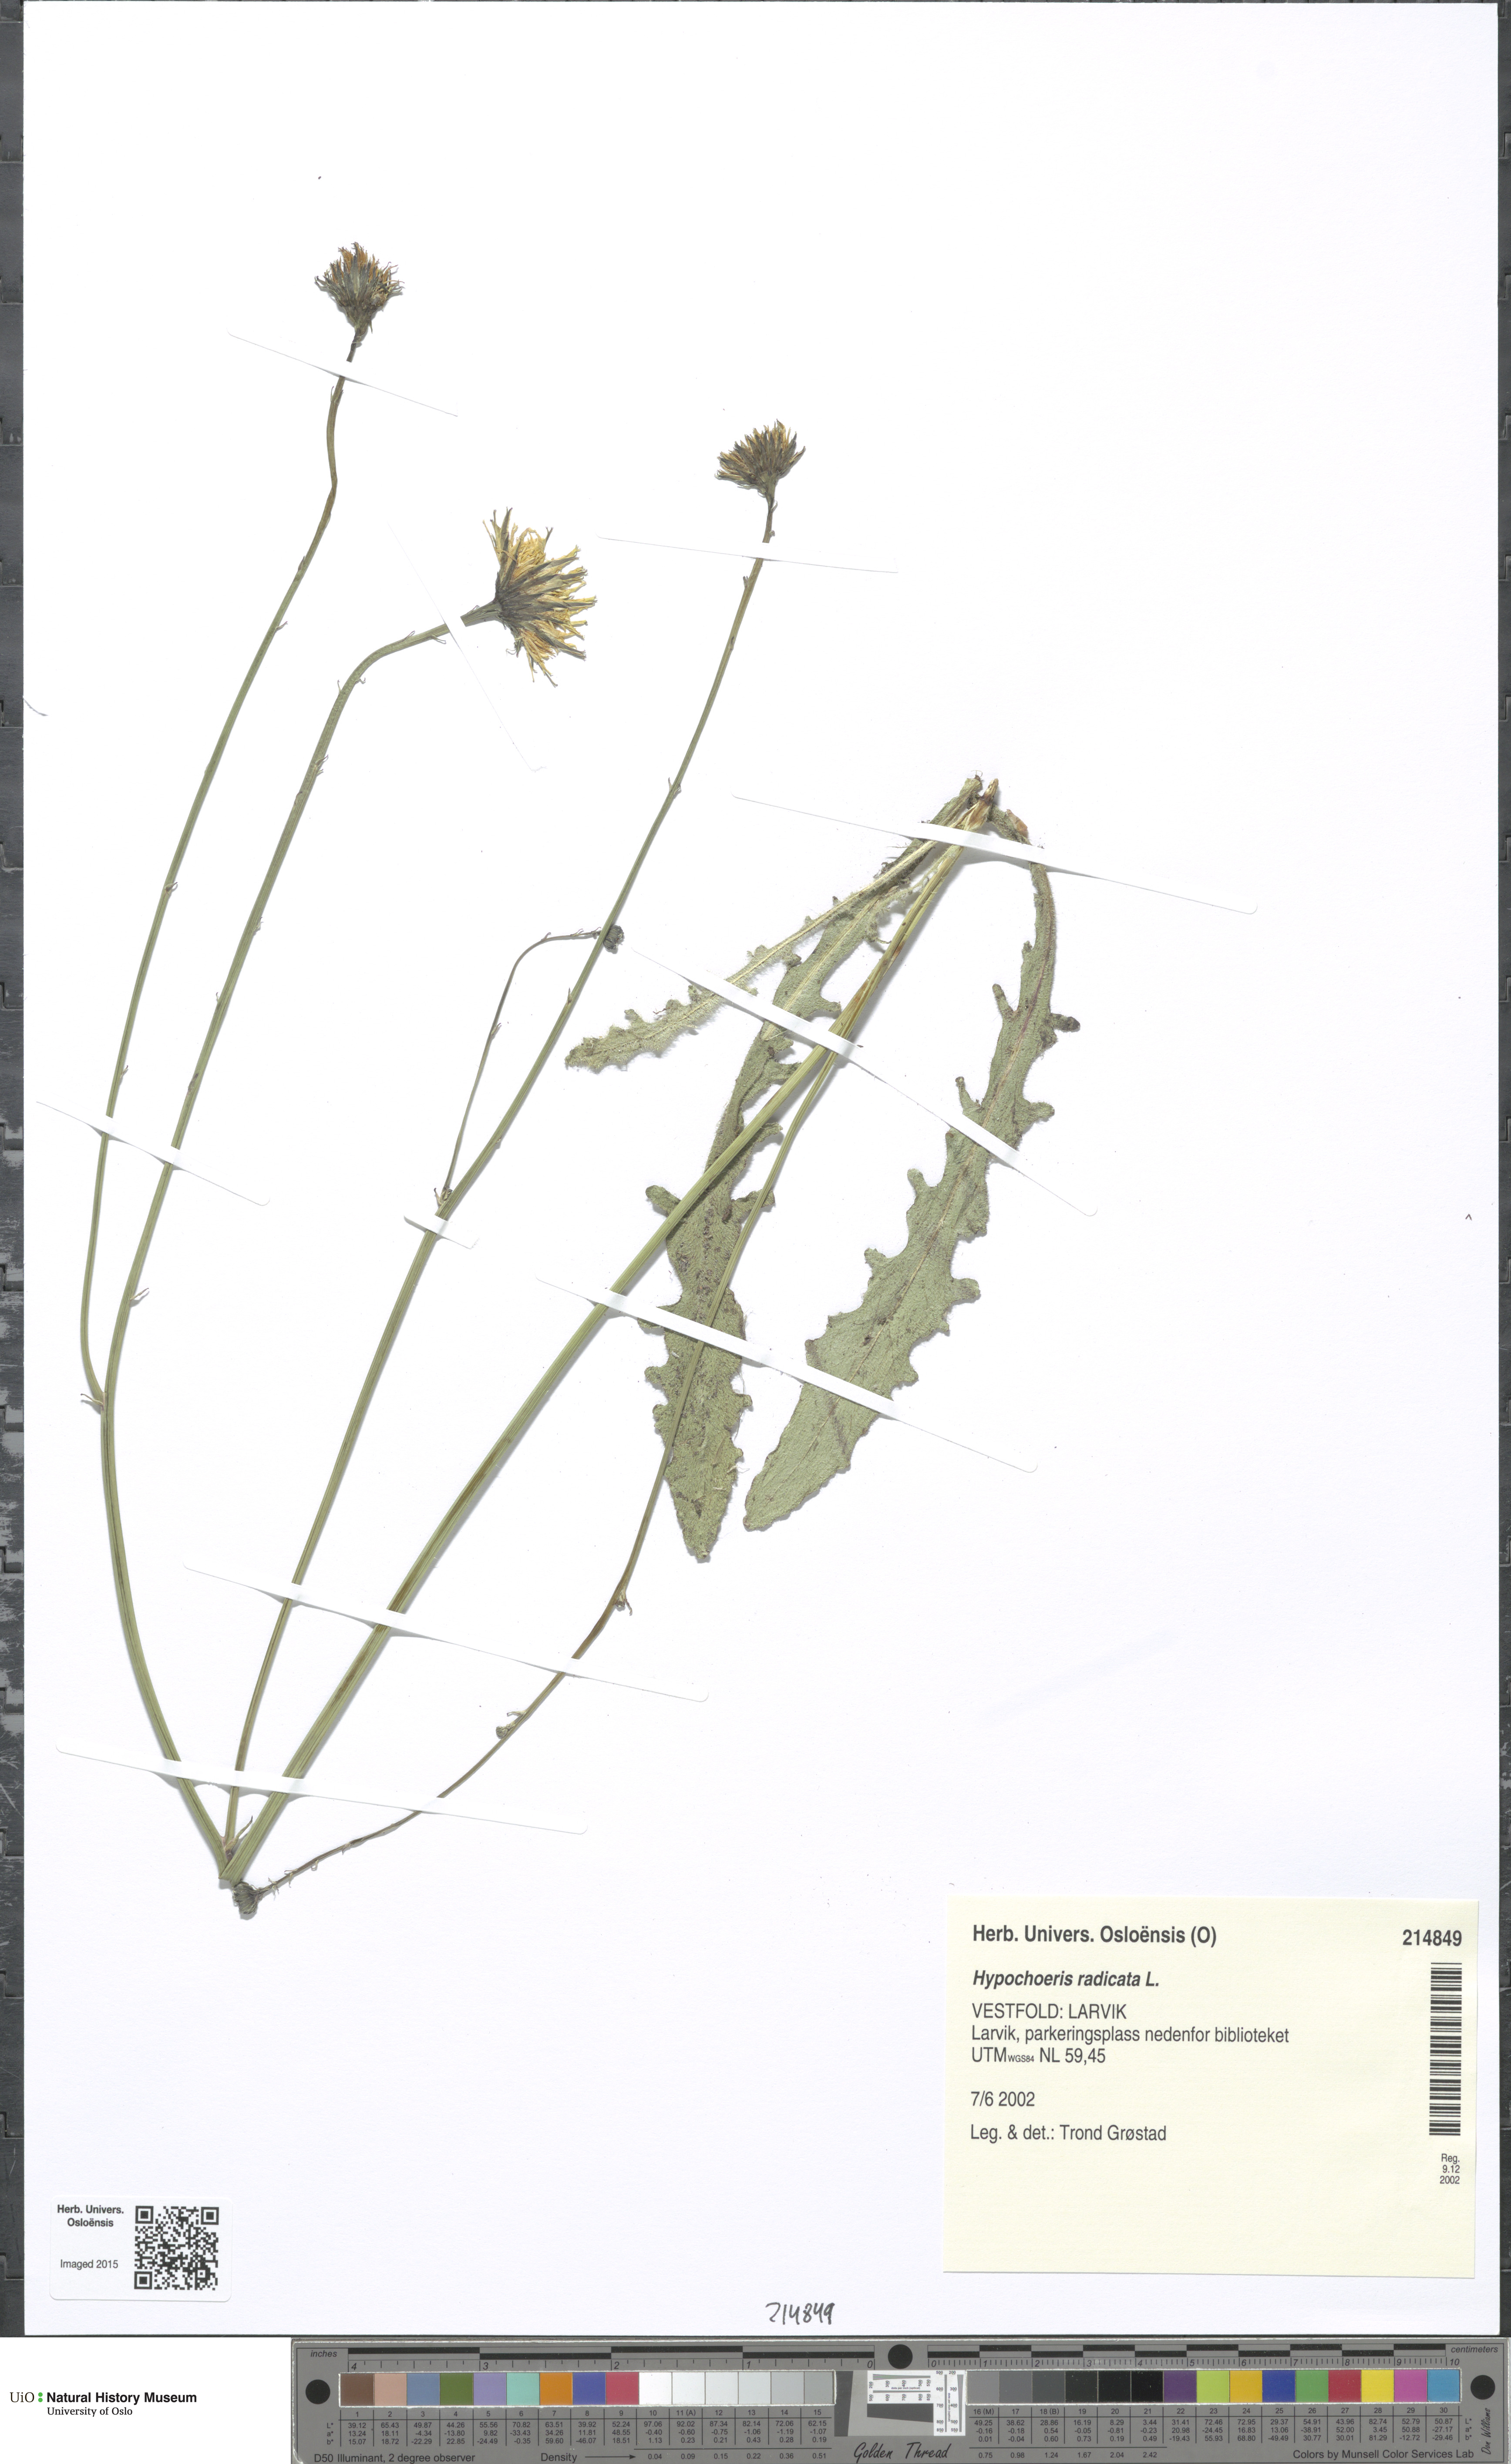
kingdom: Plantae
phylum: Tracheophyta
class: Magnoliopsida
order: Asterales
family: Asteraceae
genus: Hypochaeris
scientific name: Hypochaeris radicata
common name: Flatweed
